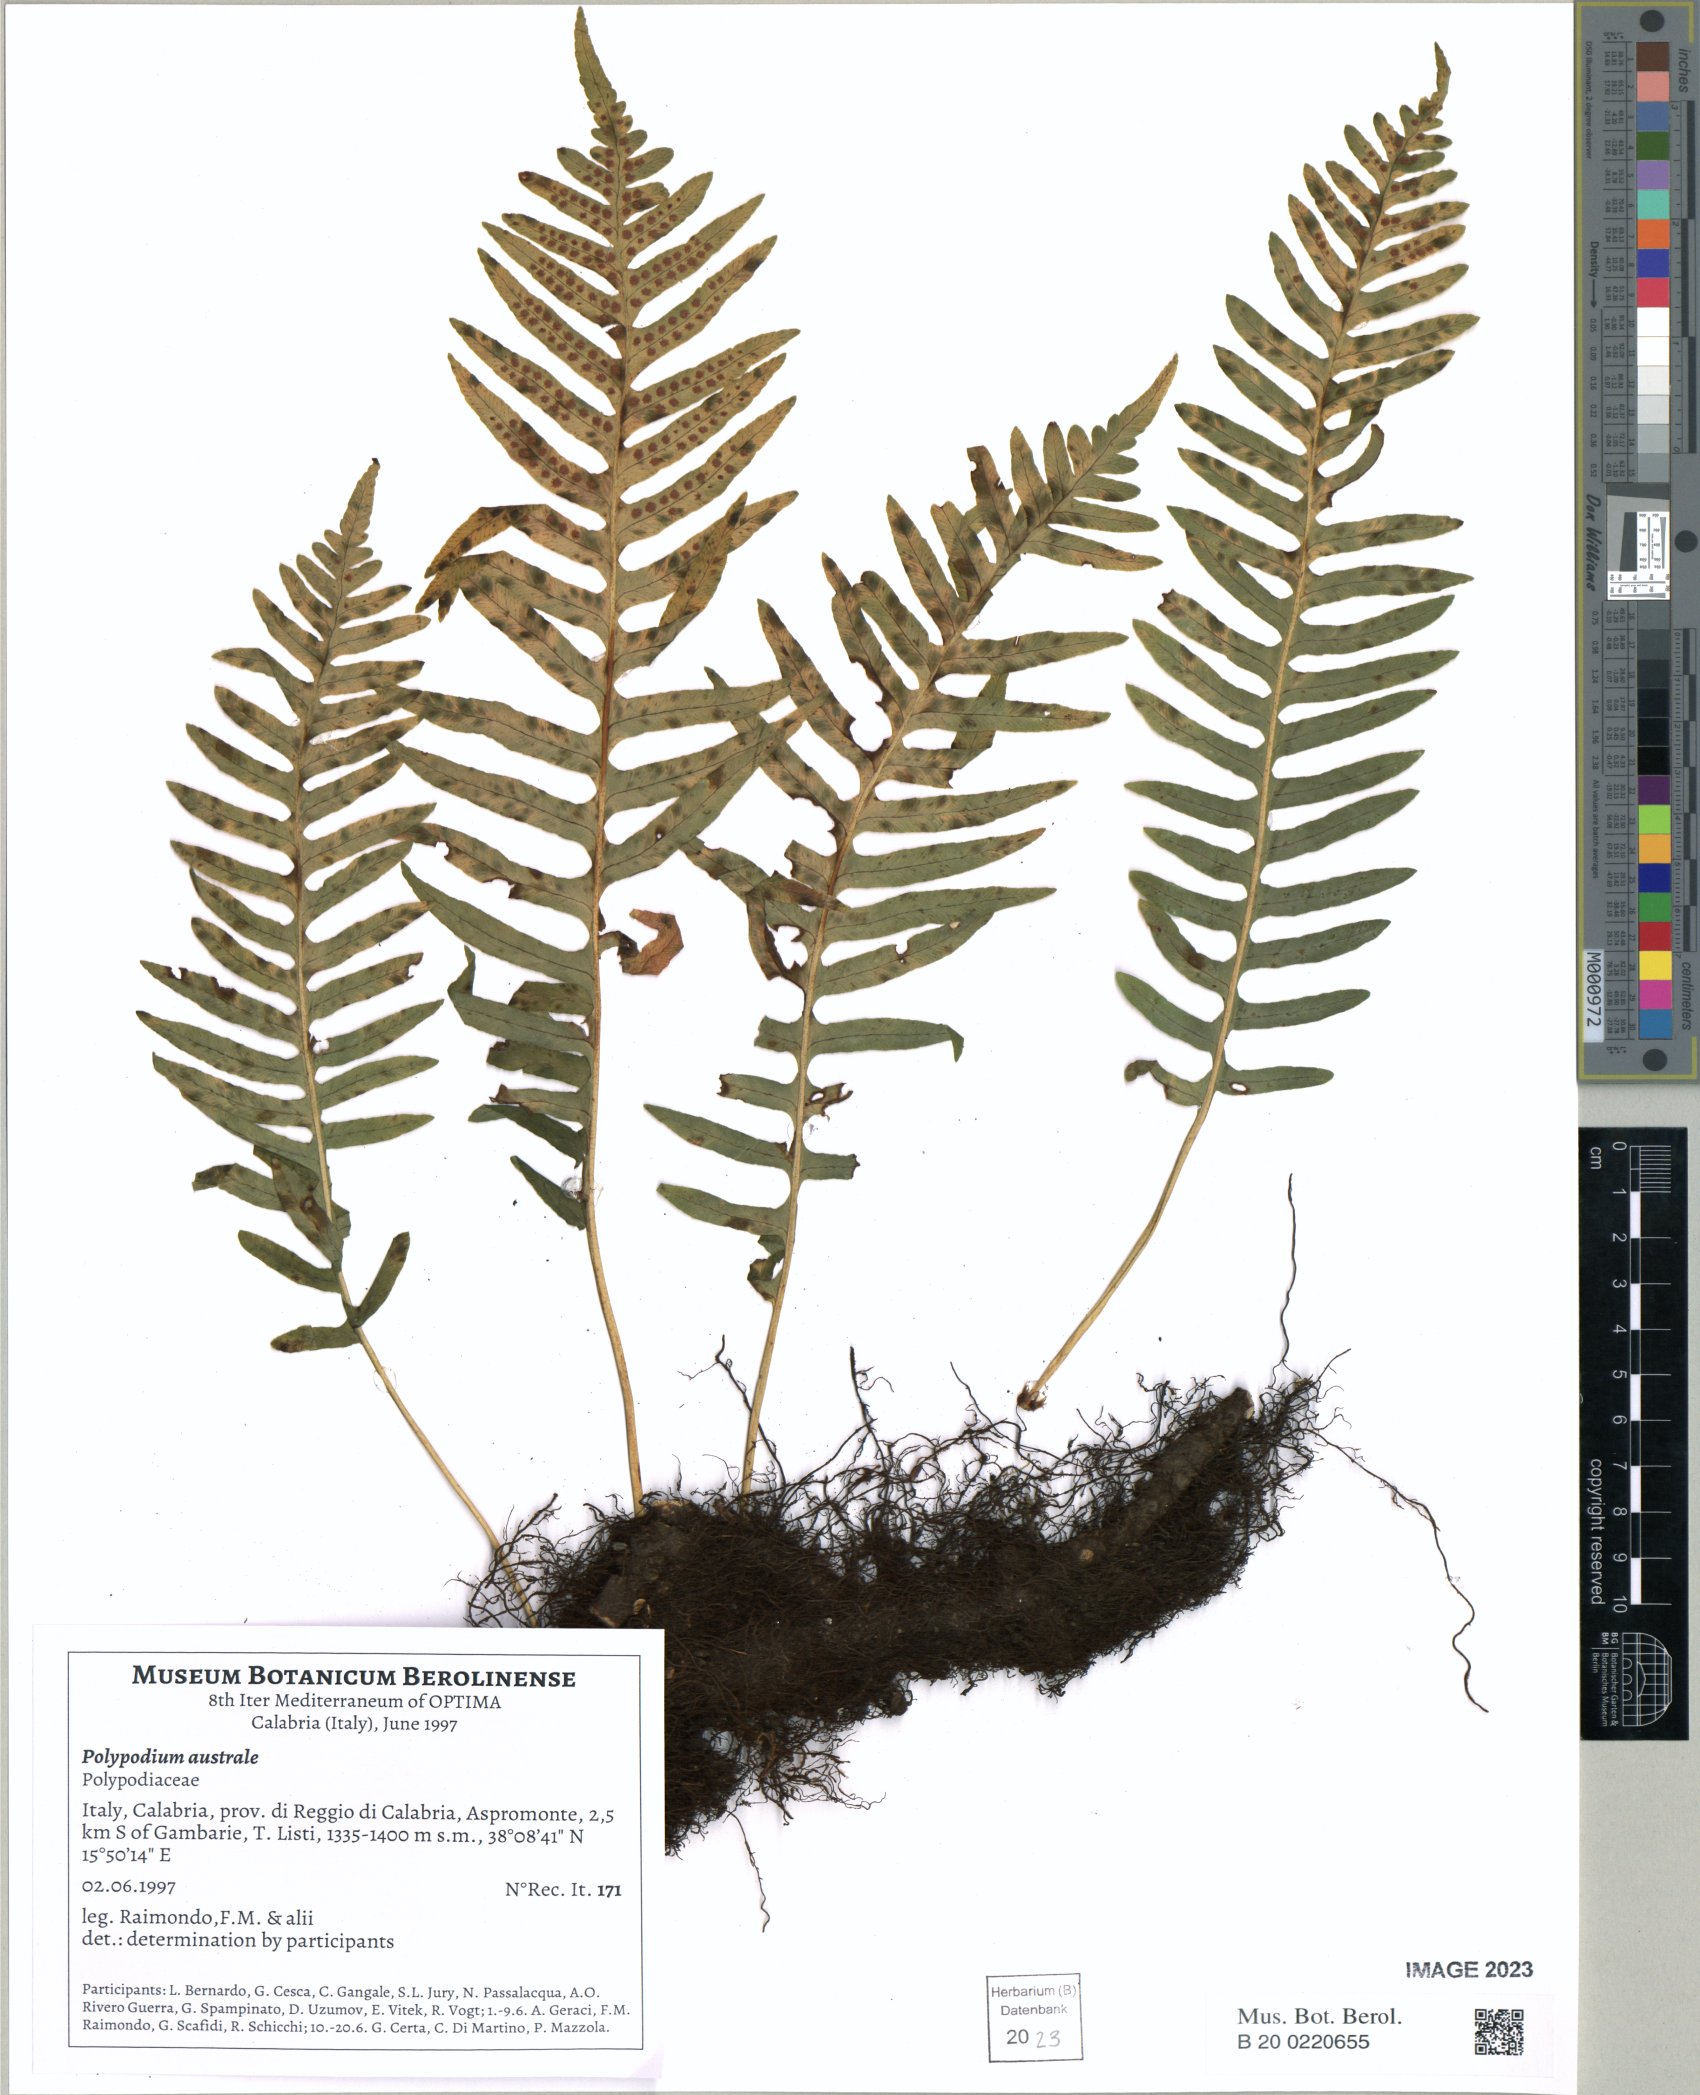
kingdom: Plantae
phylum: Tracheophyta
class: Polypodiopsida
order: Polypodiales
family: Polypodiaceae
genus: Polypodium
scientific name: Polypodium cambricum
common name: Southern polypody
